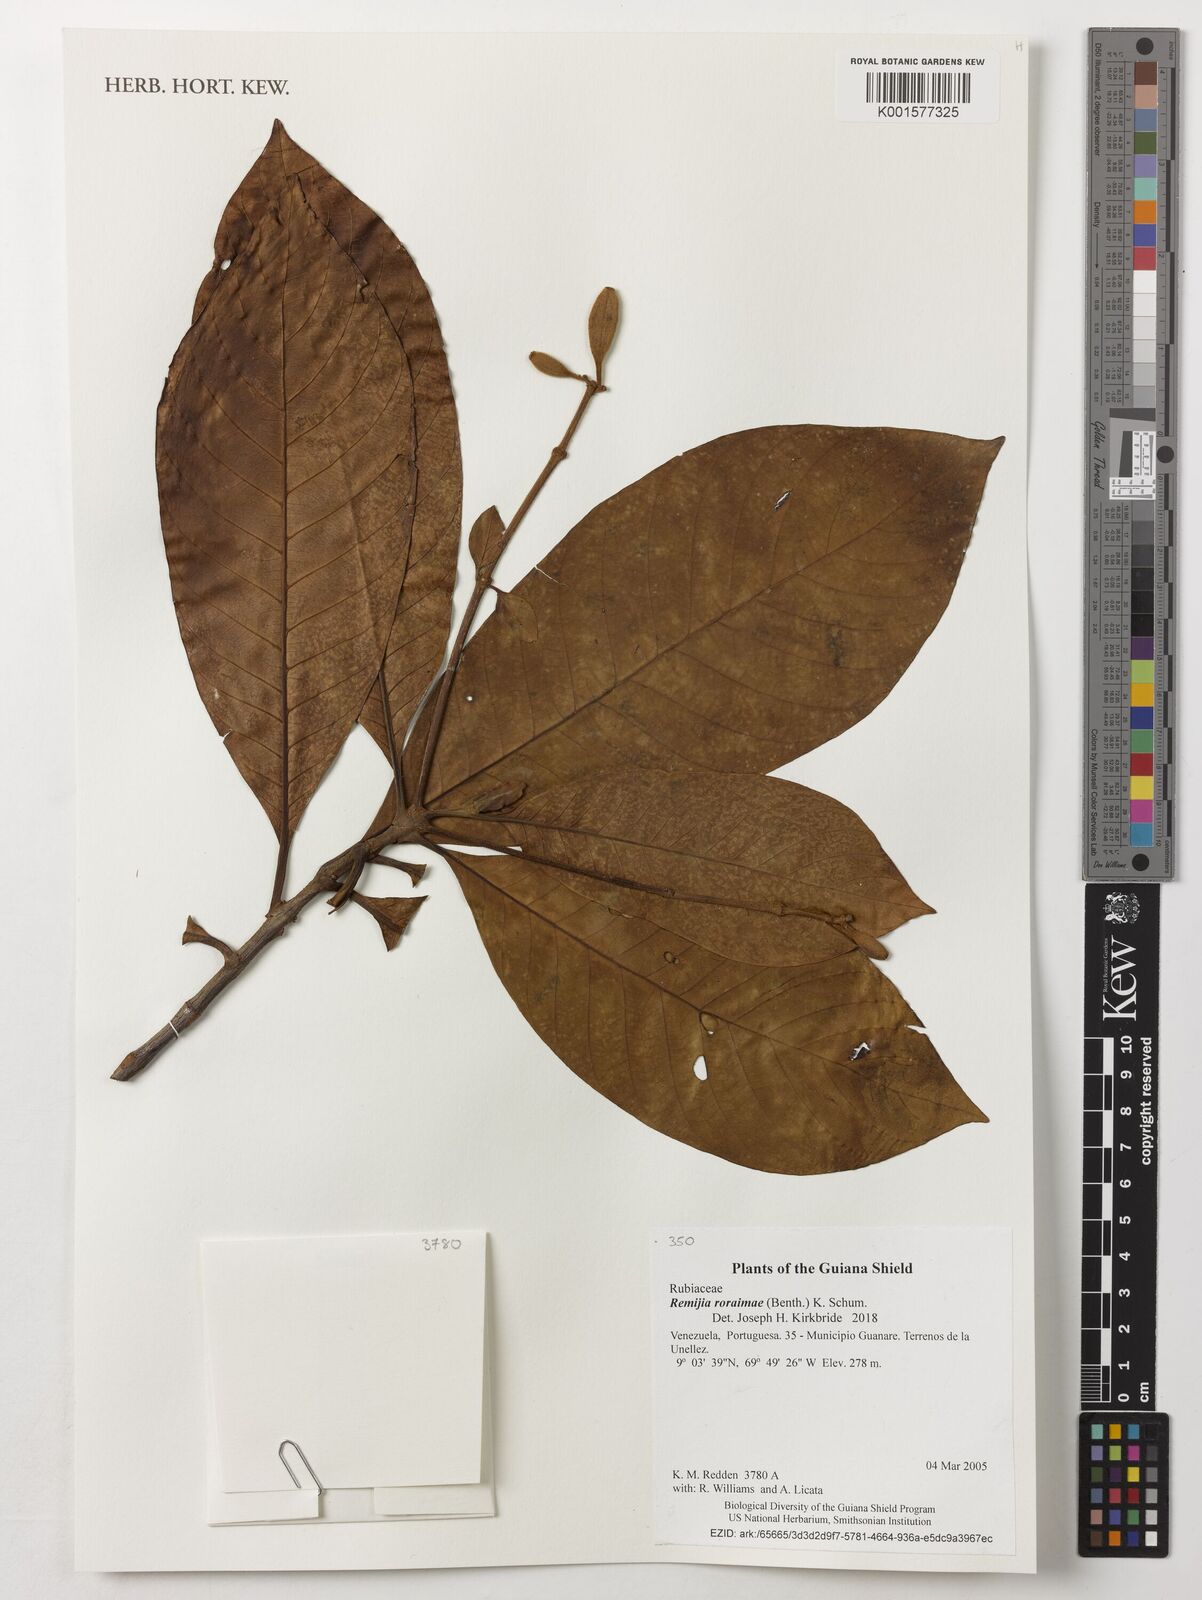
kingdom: Plantae
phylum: Tracheophyta
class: Magnoliopsida
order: Gentianales
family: Rubiaceae
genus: Remijia
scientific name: Remijia roraimae
